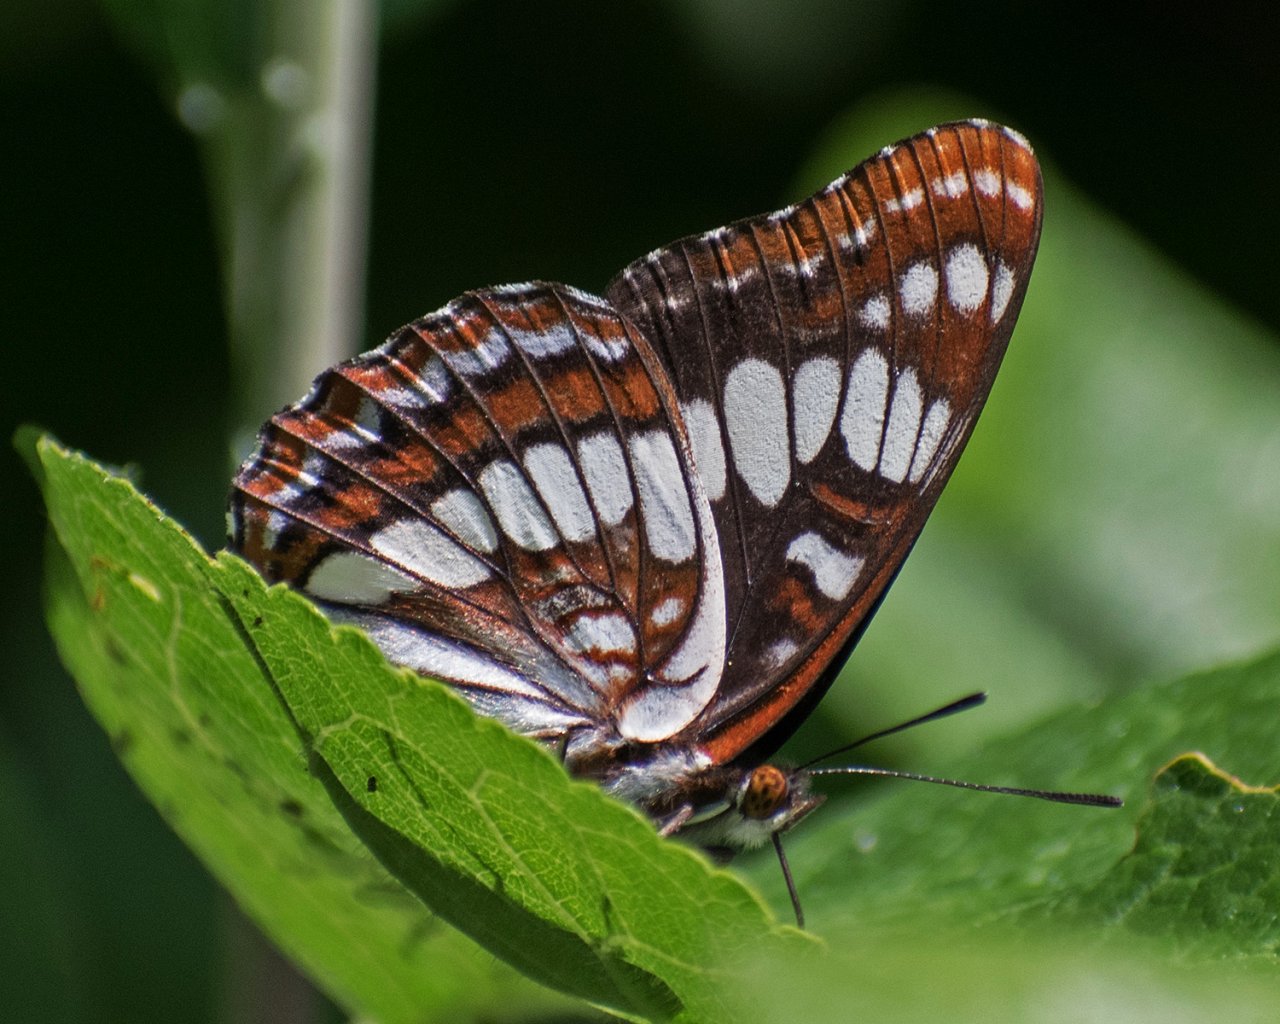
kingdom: Animalia
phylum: Arthropoda
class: Insecta
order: Lepidoptera
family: Nymphalidae
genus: Limenitis
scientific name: Limenitis lorquini
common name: Lorquin's Admiral
